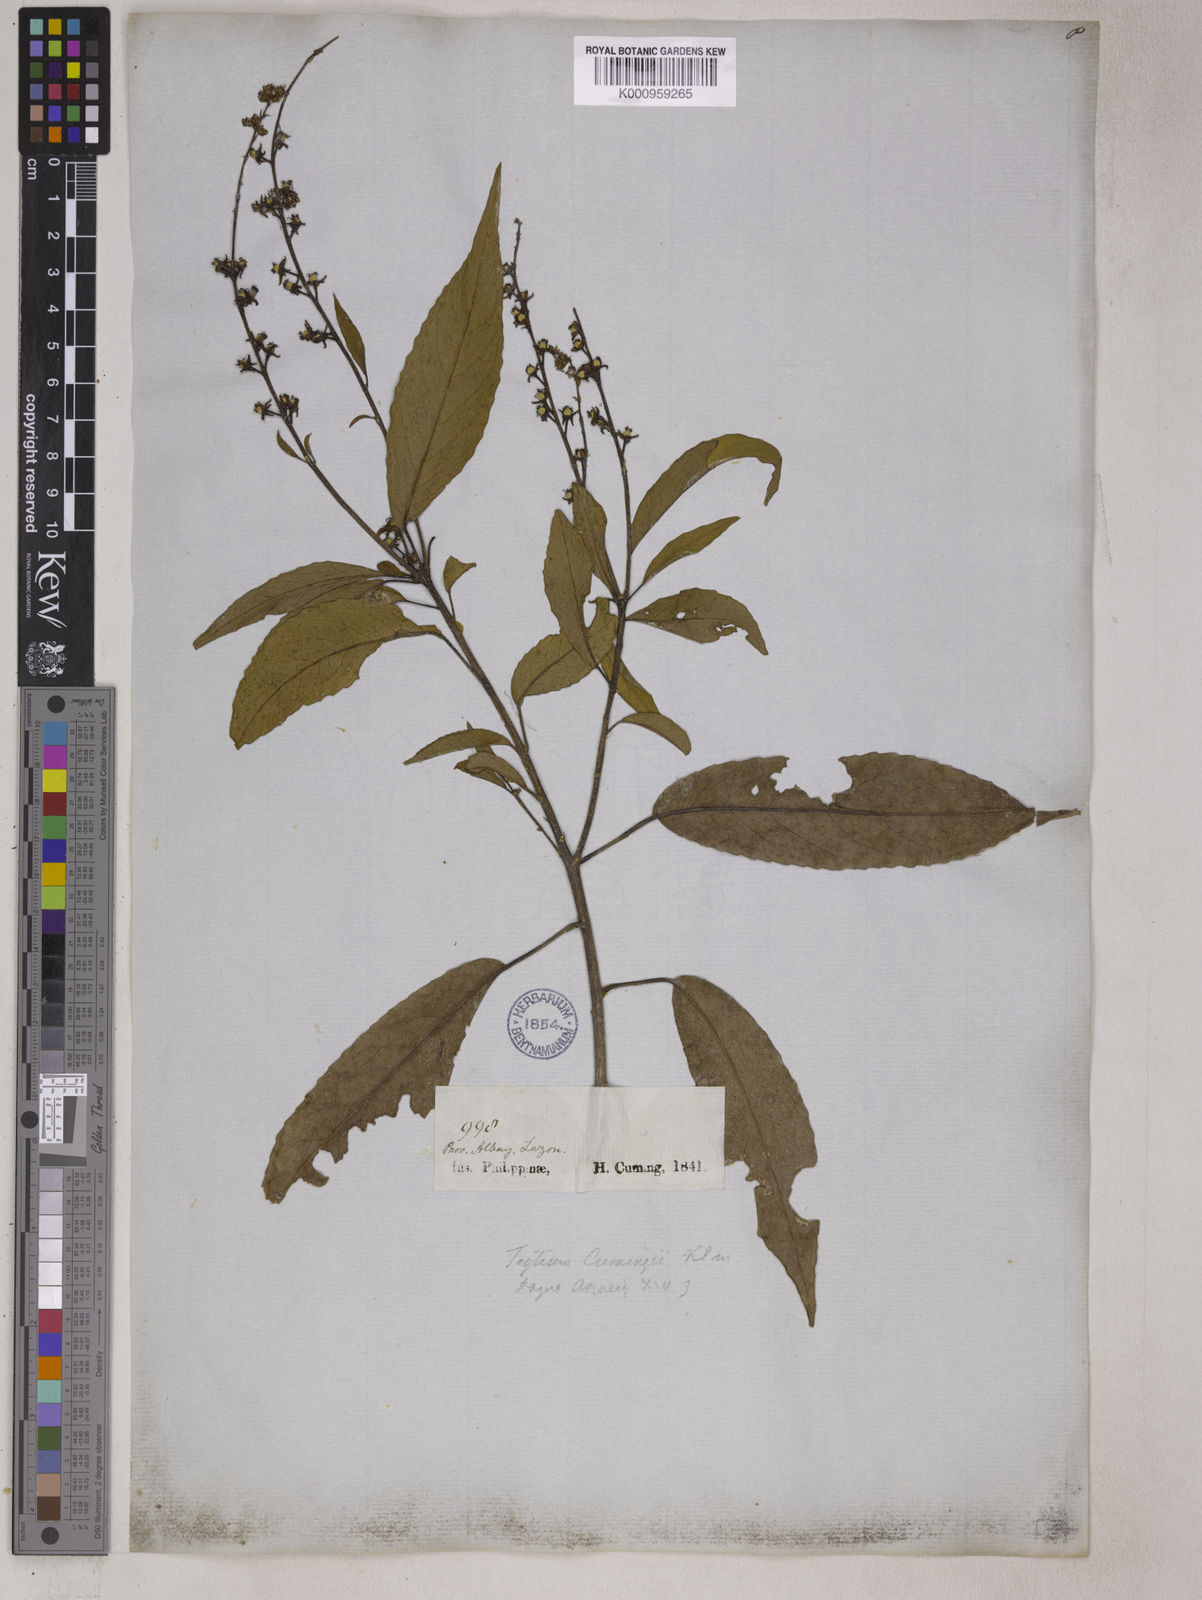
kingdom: Plantae
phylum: Tracheophyta
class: Magnoliopsida
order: Malpighiales
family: Euphorbiaceae
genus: Croton
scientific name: Croton
